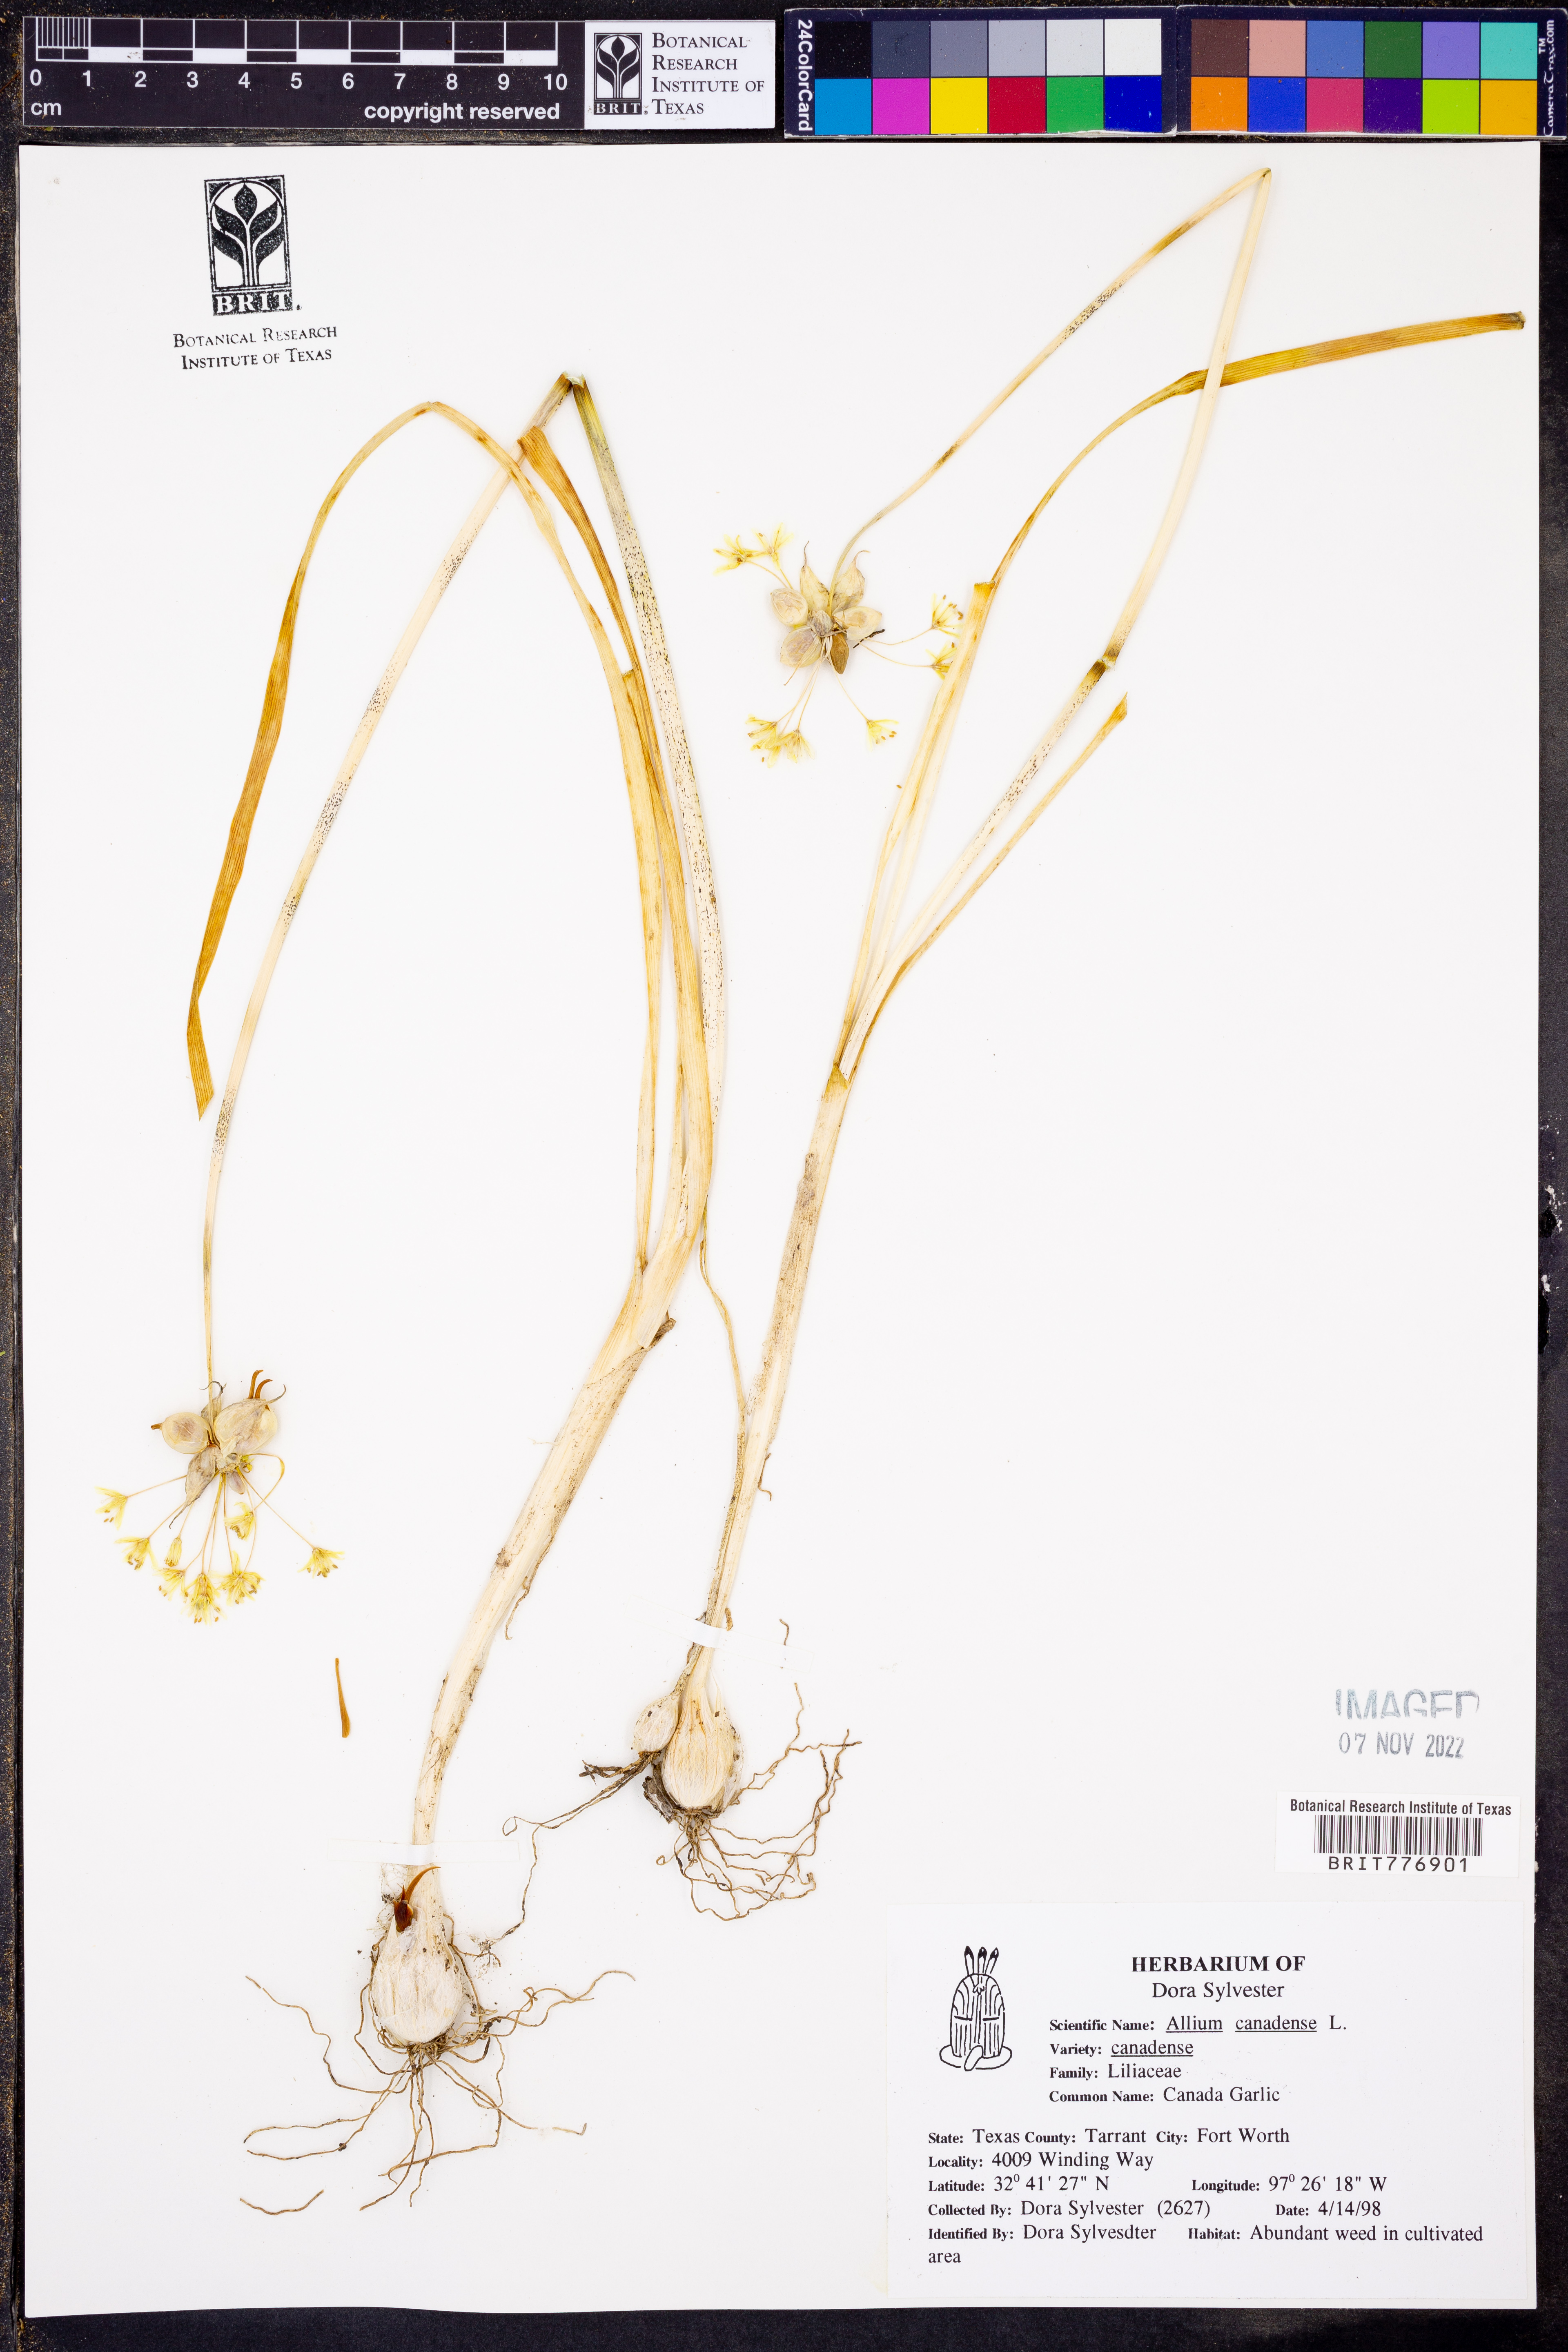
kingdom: Plantae
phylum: Tracheophyta
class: Liliopsida
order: Asparagales
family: Amaryllidaceae
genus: Allium
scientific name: Allium canadense
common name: Meadow garlic
